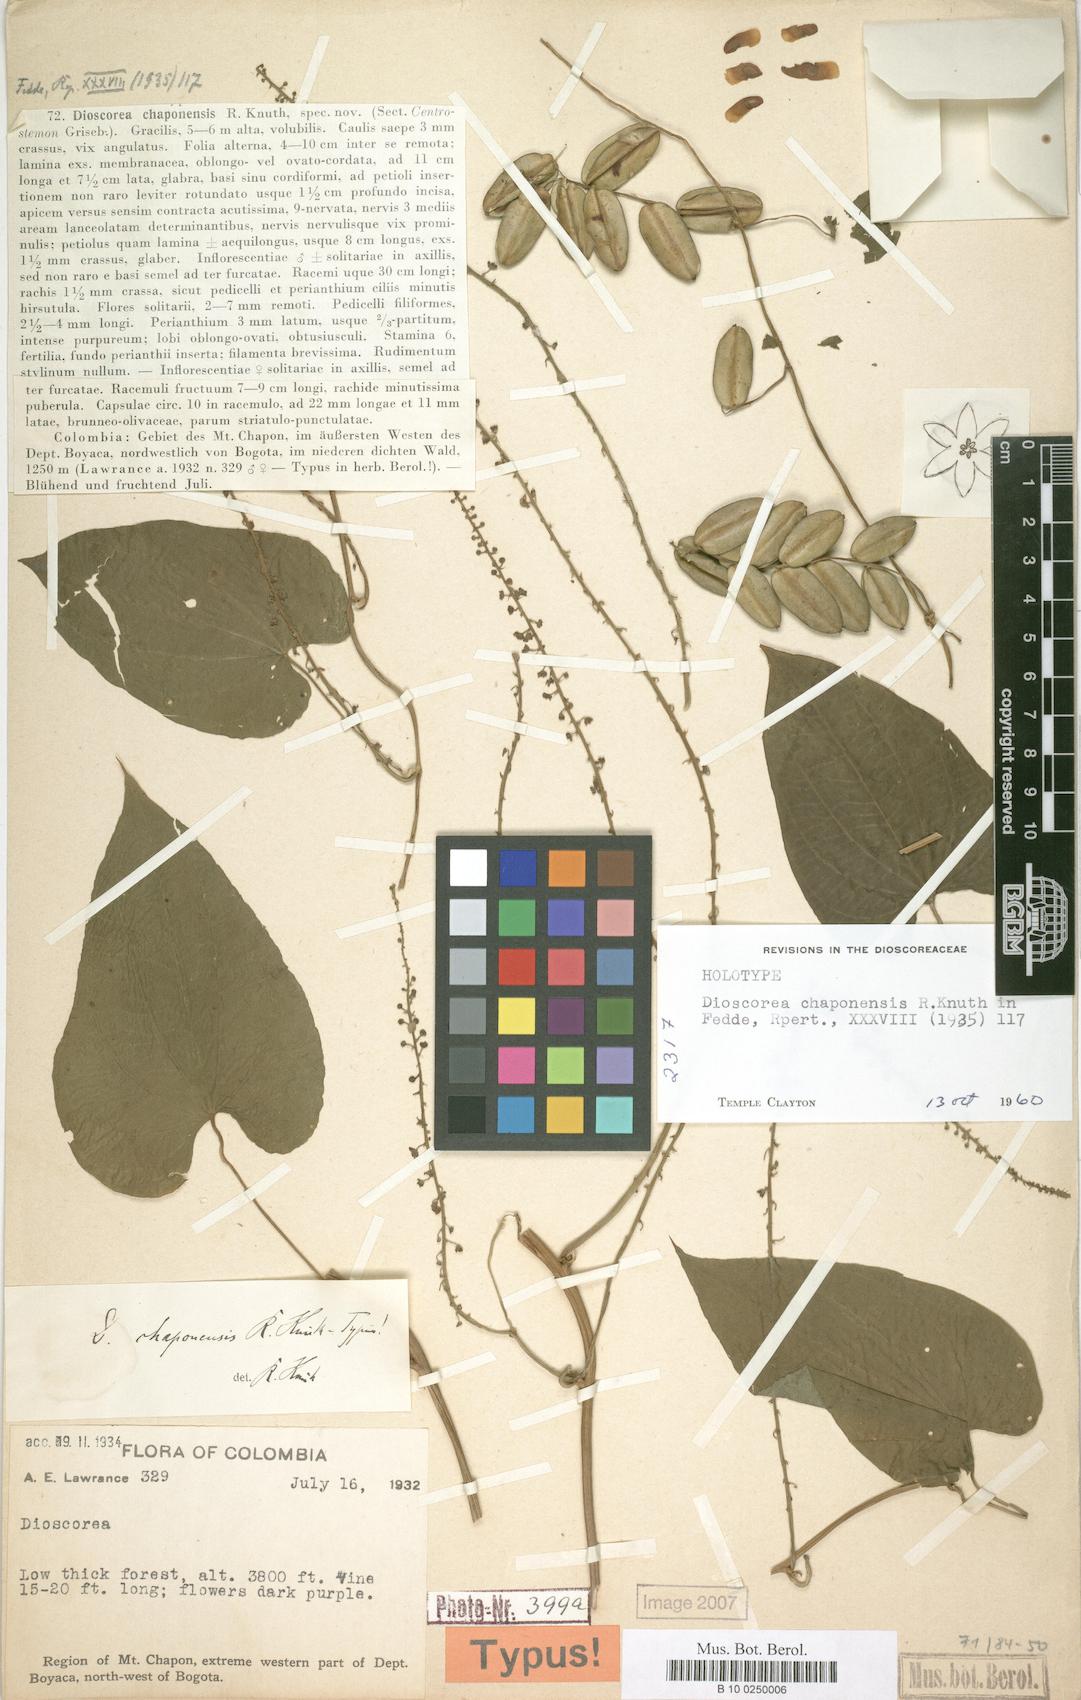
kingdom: Plantae
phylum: Tracheophyta
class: Liliopsida
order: Dioscoreales
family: Dioscoreaceae
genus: Dioscorea
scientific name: Dioscorea glomerulata
